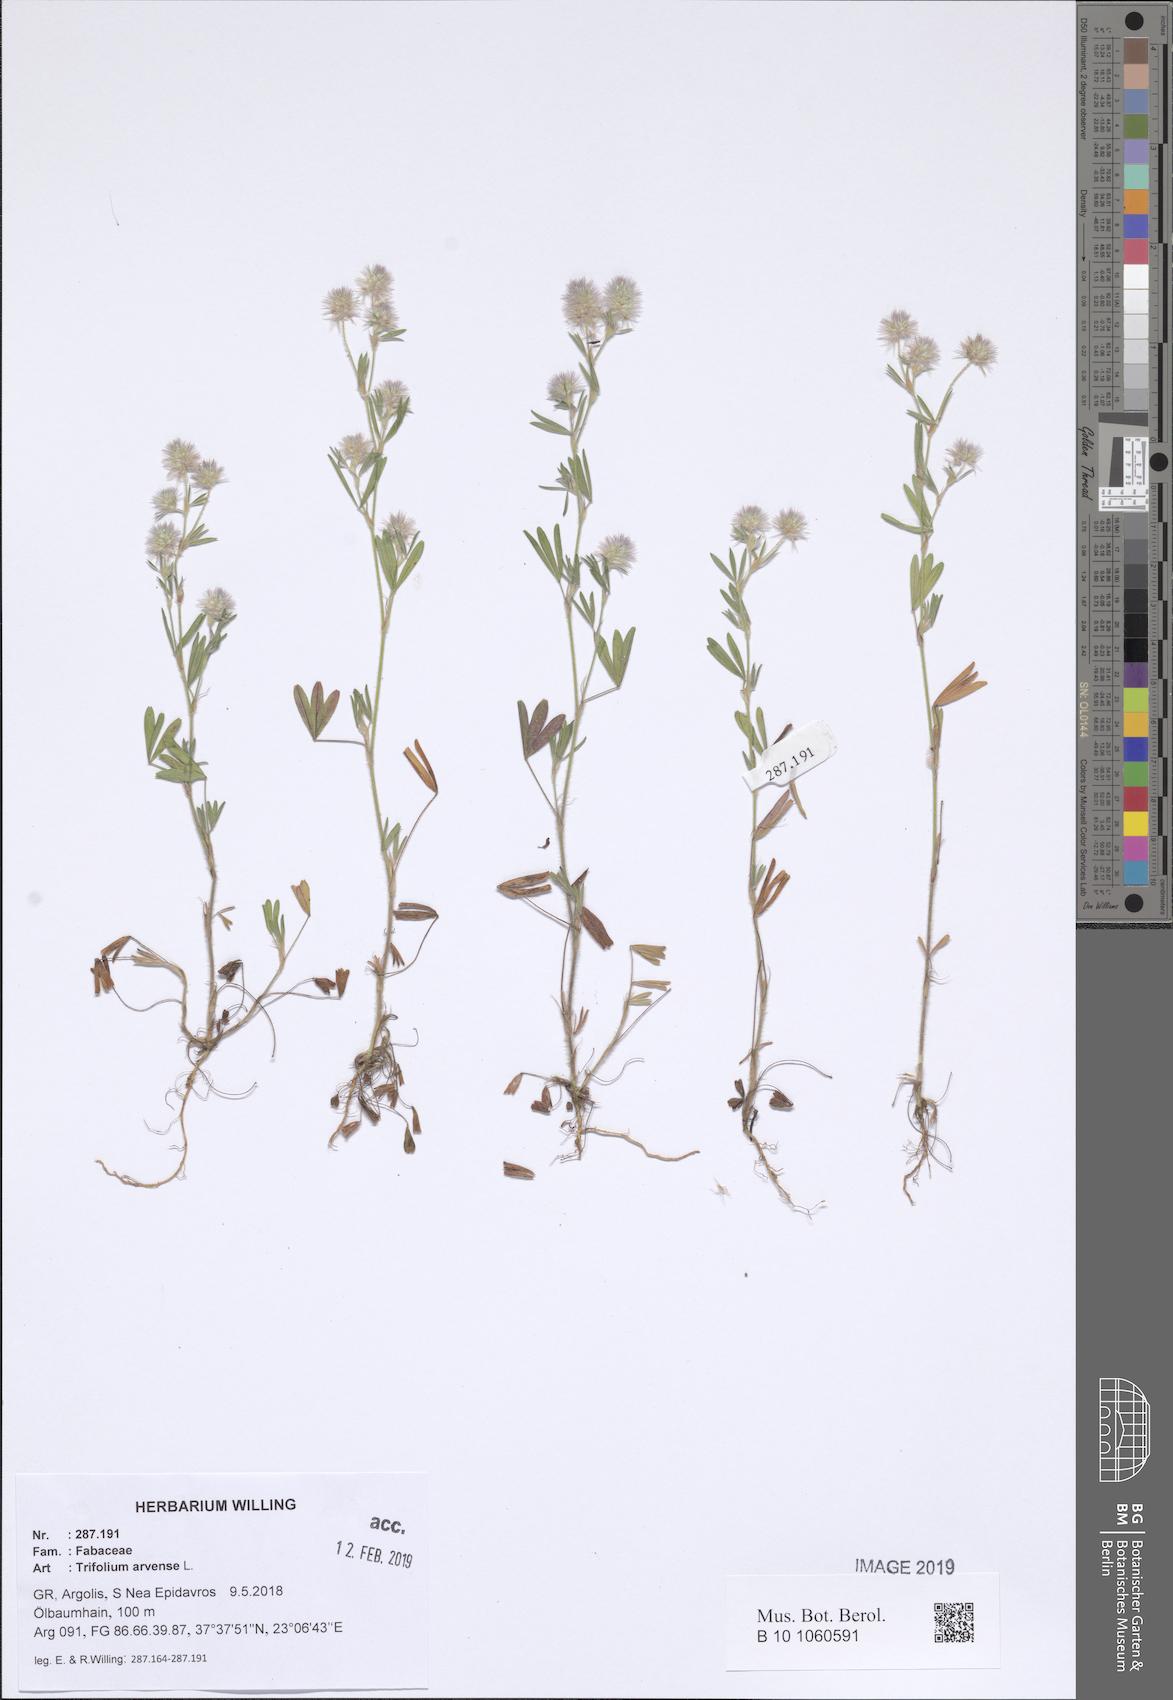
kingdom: Plantae
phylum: Tracheophyta
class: Magnoliopsida
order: Fabales
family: Fabaceae
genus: Trifolium
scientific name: Trifolium arvense
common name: Hare's-foot clover
